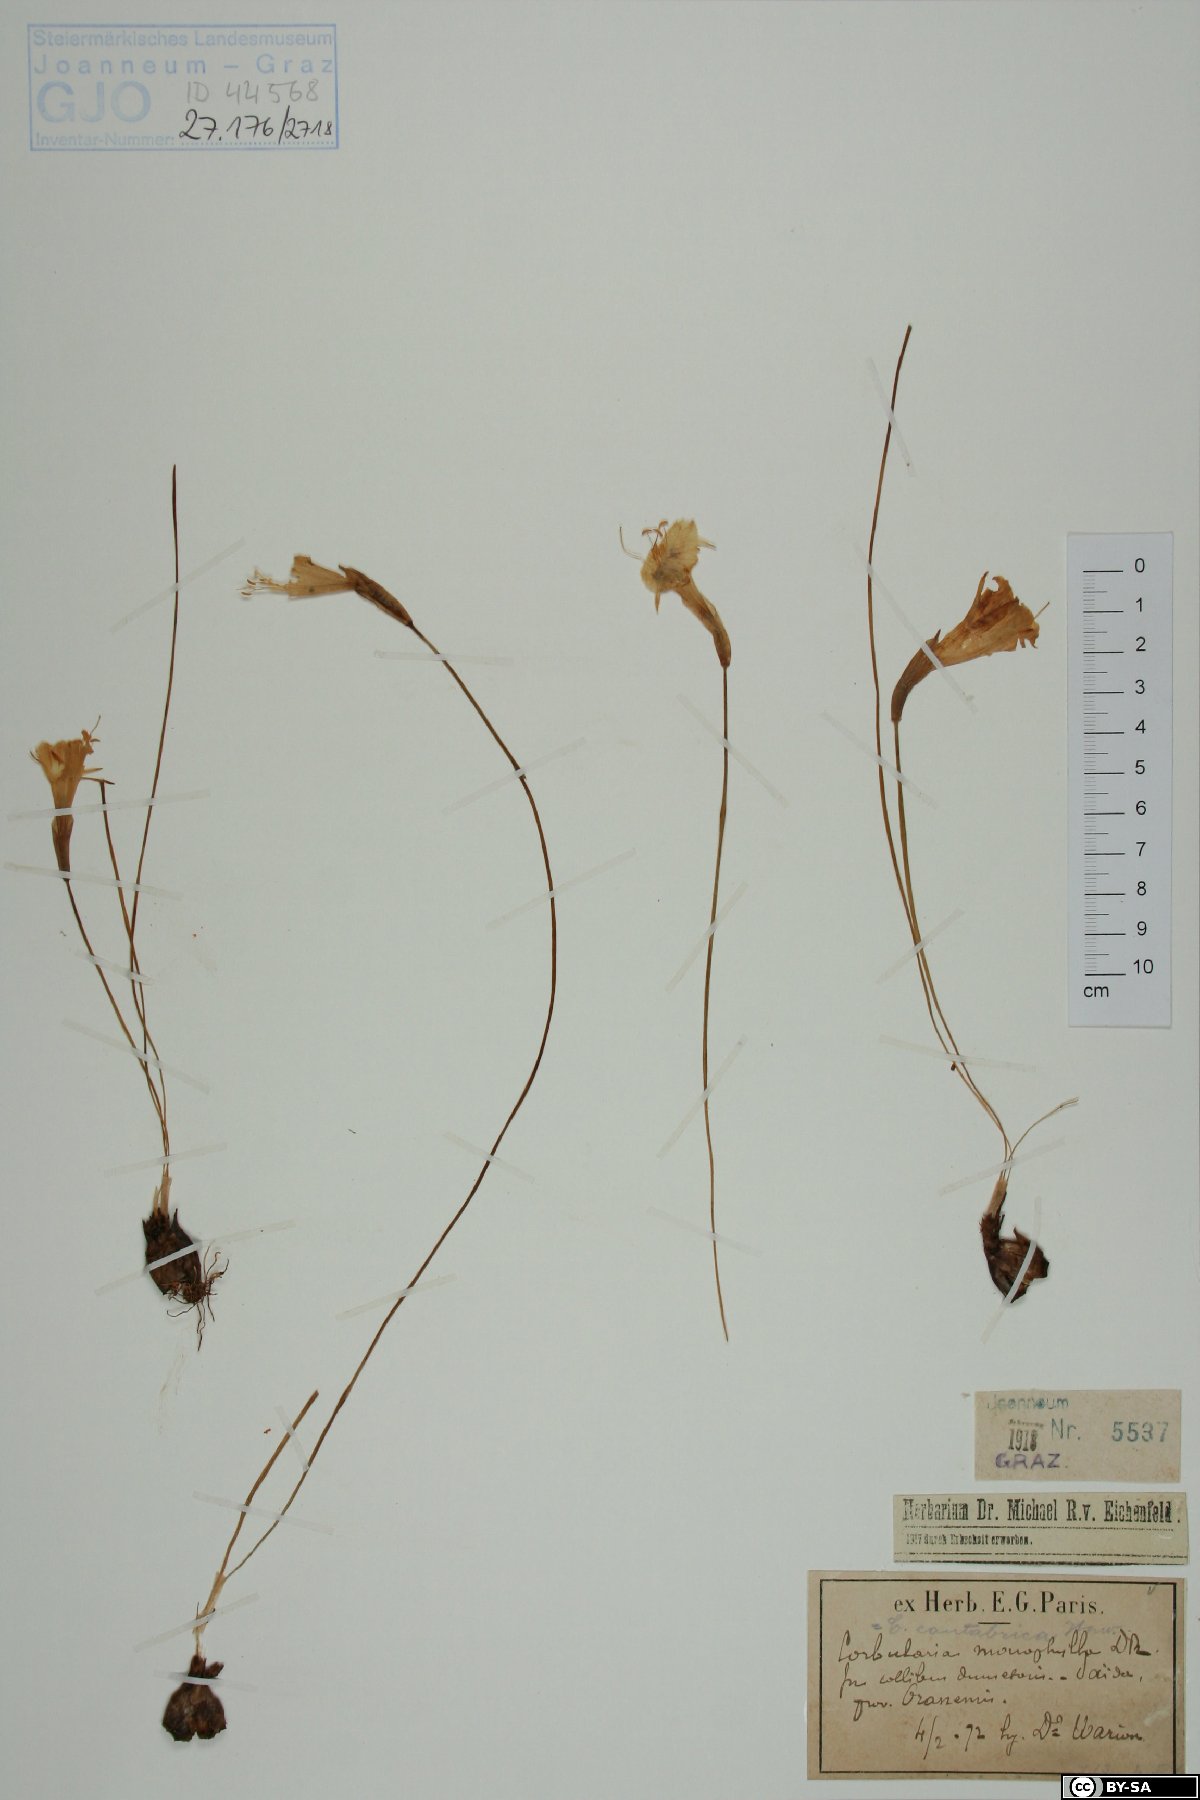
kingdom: Plantae
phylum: Bryophyta
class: Polytrichopsida
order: Polytrichales
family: Polytrichaceae
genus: Polytrichum
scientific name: Polytrichum juniperinum
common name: Juniper haircap moss
